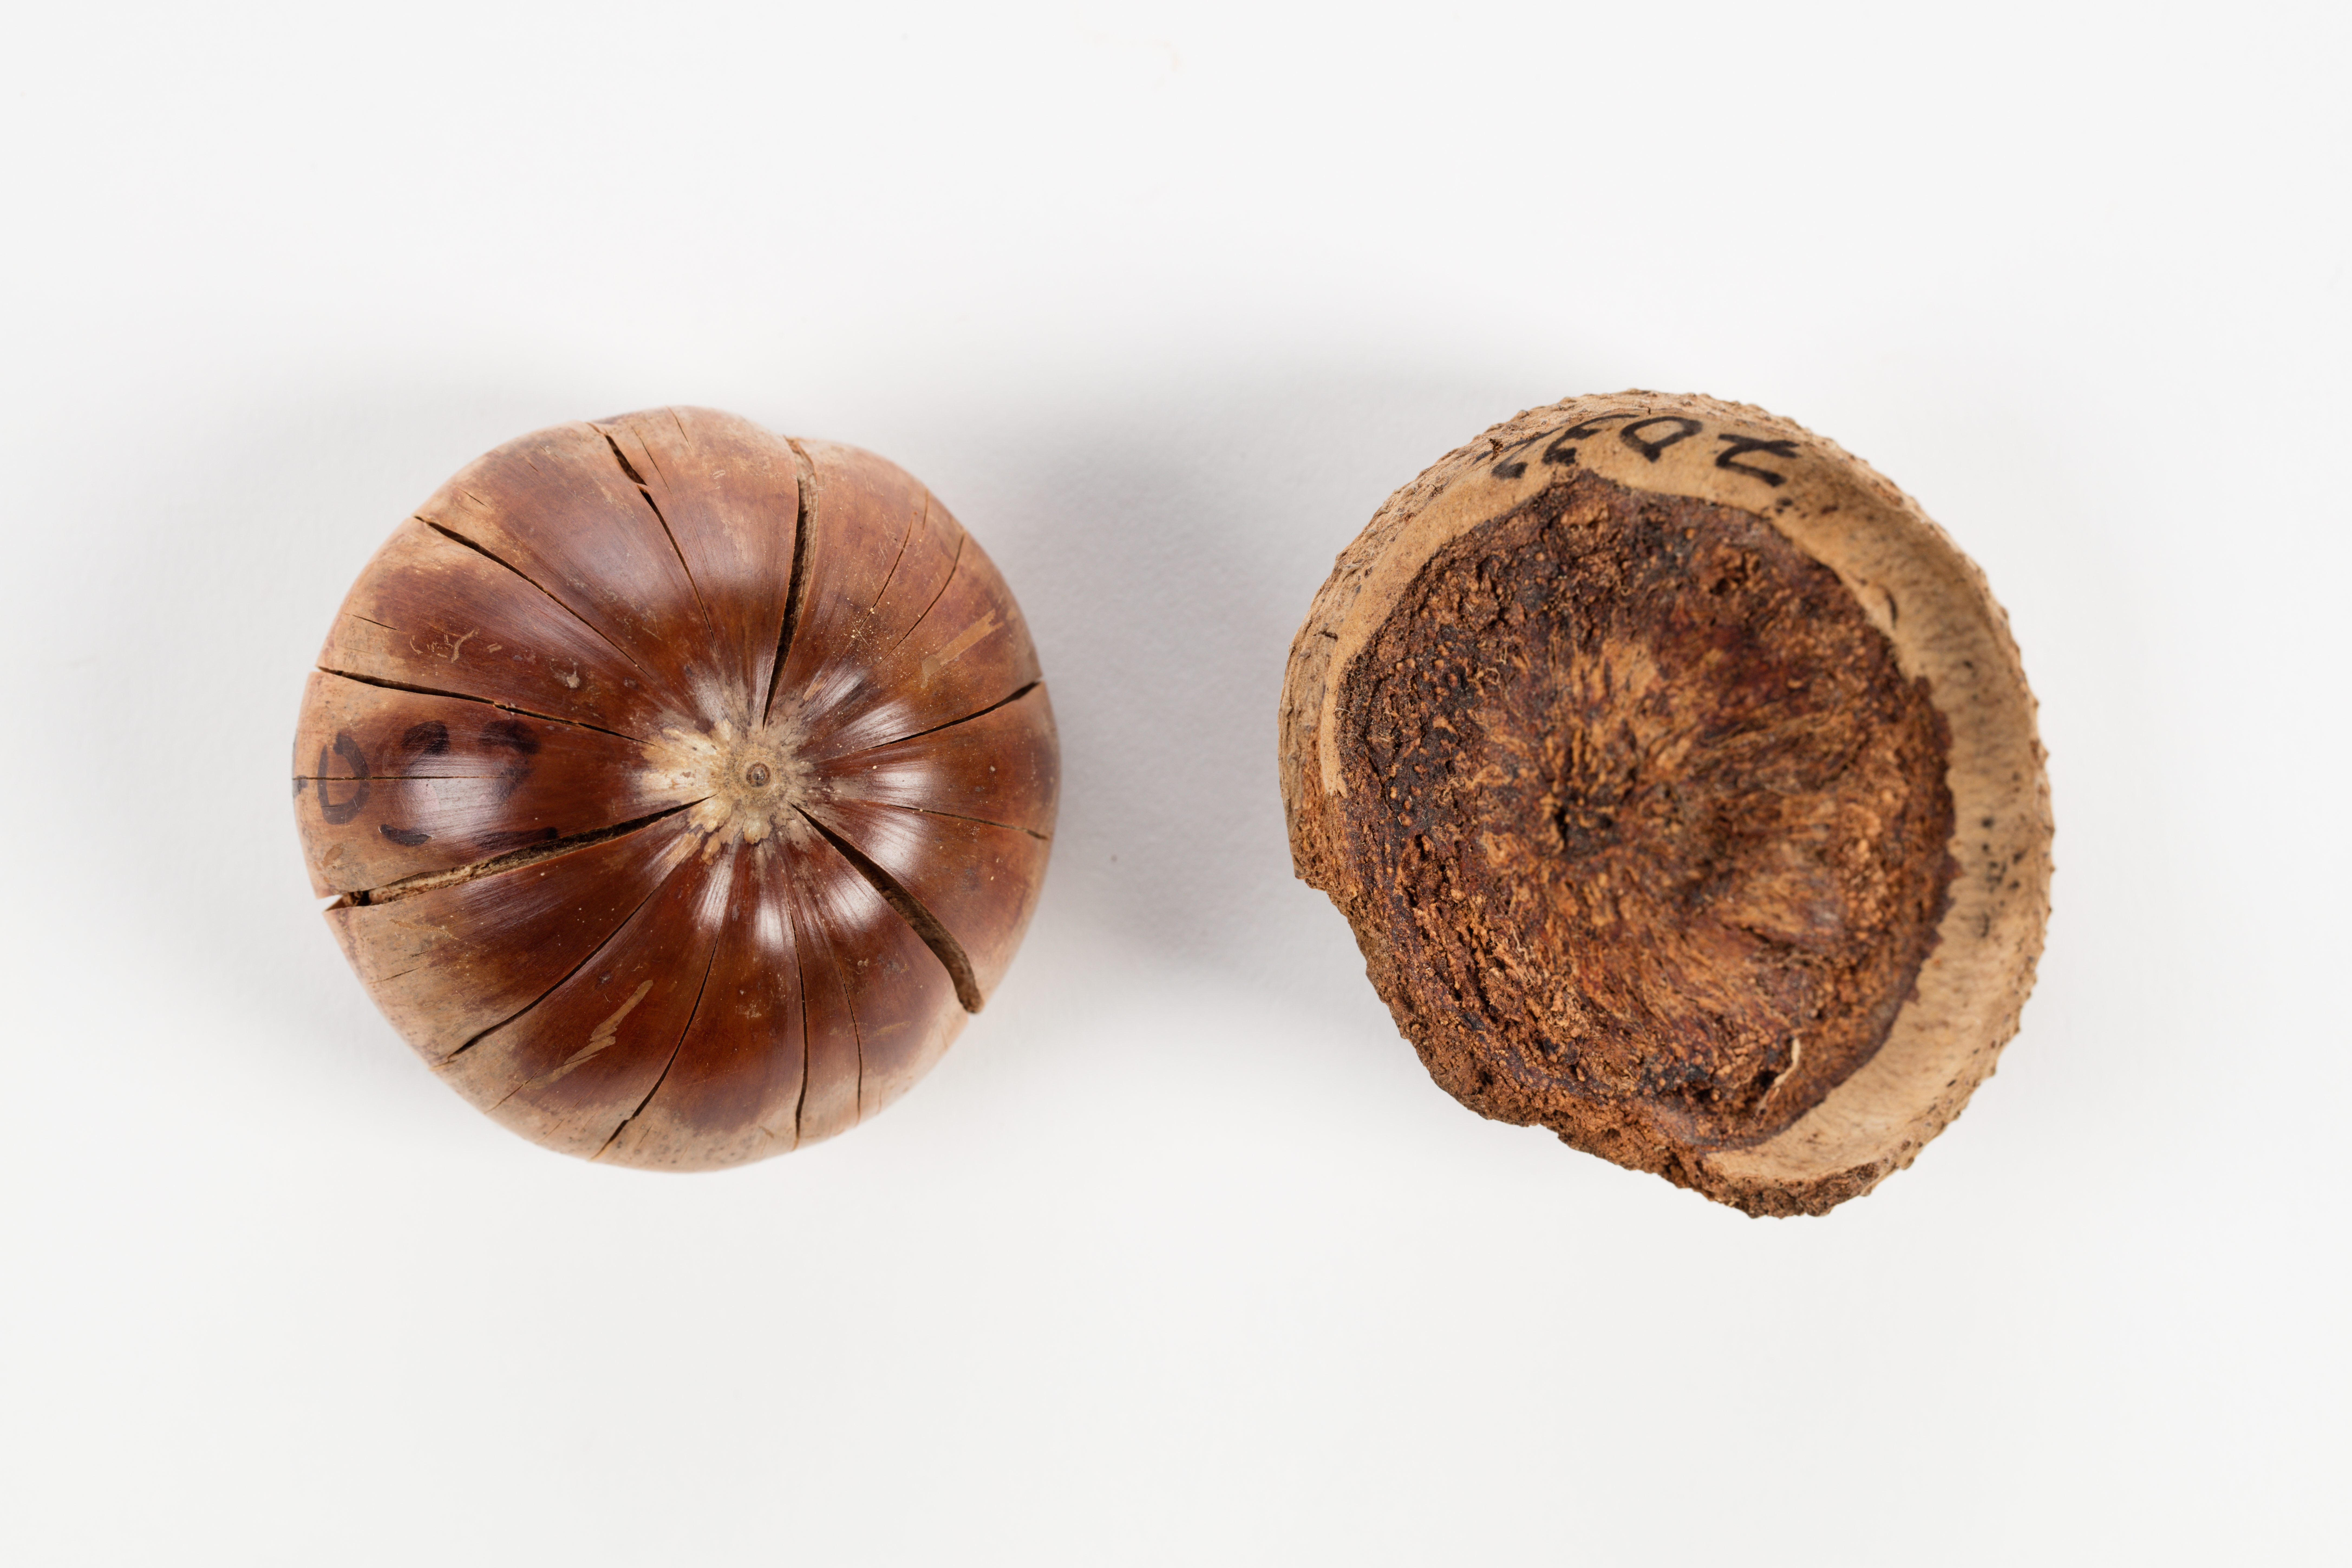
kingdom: Plantae
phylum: Tracheophyta
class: Magnoliopsida
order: Fagales
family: Fagaceae
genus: Lithocarpus
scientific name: Lithocarpus
